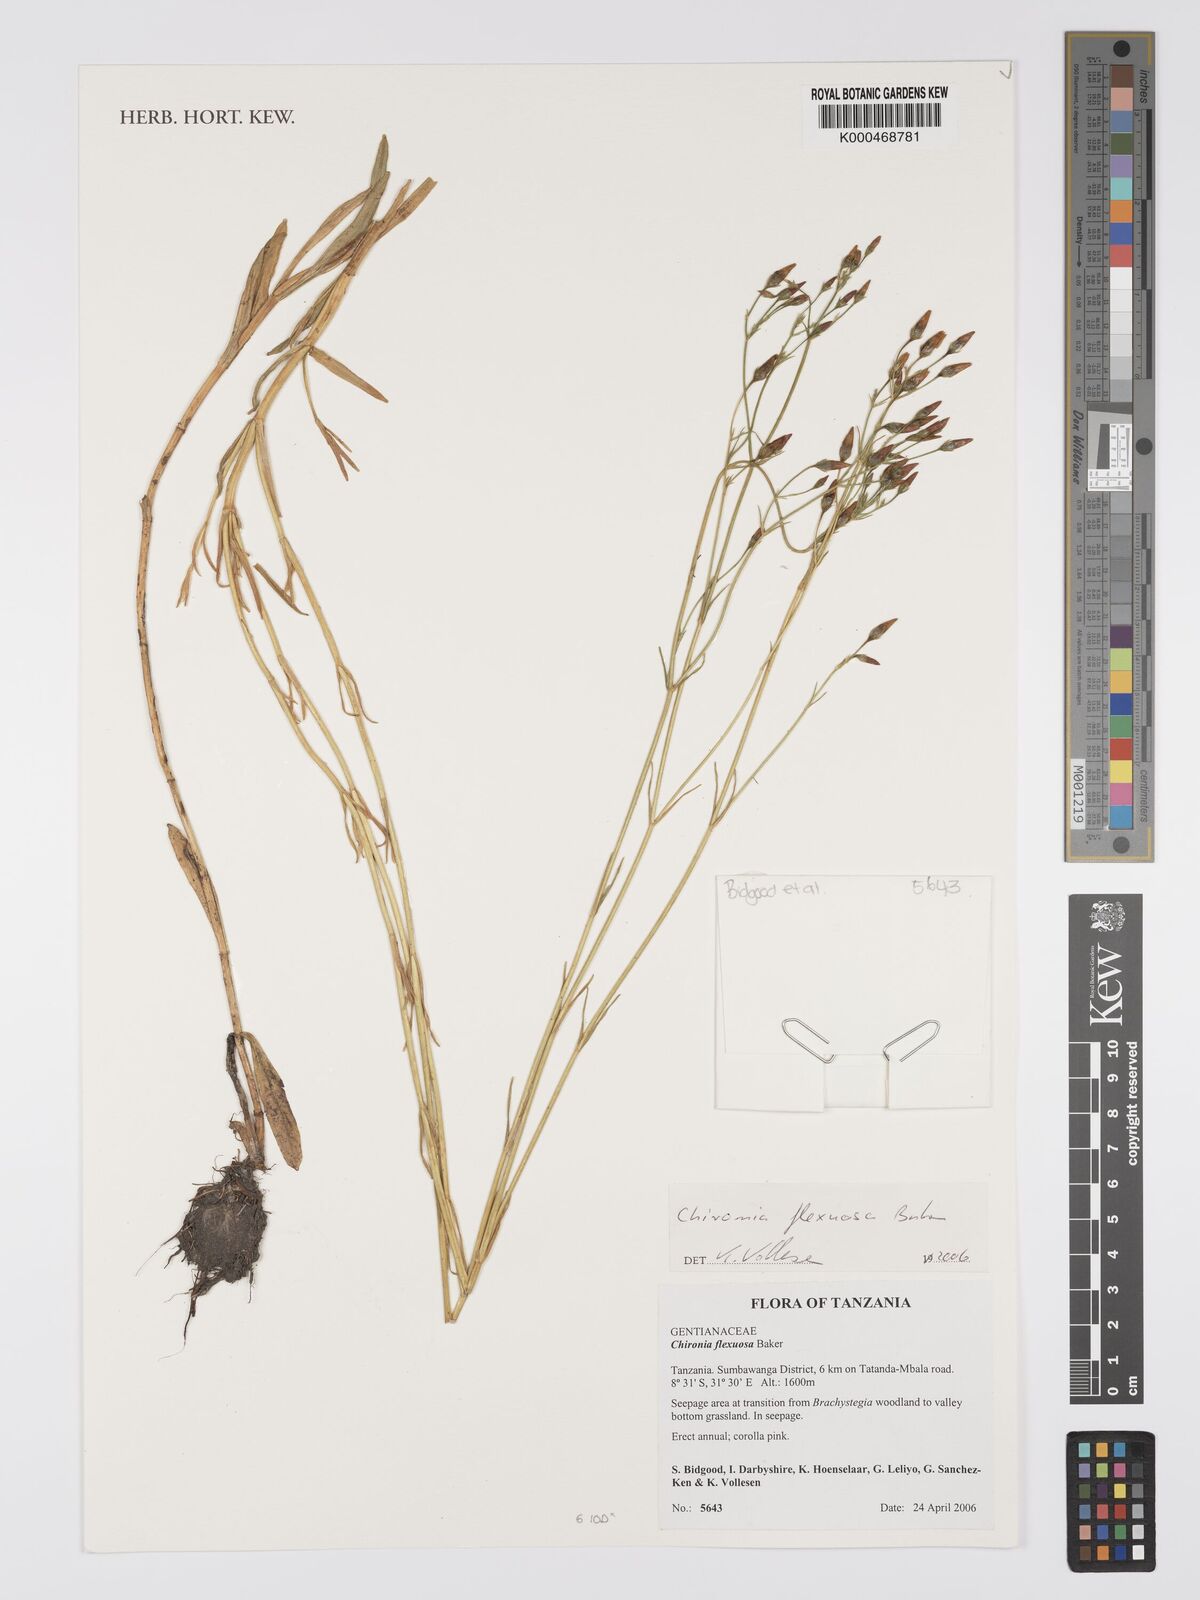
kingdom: Plantae
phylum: Tracheophyta
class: Magnoliopsida
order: Gentianales
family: Gentianaceae
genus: Chironia
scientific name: Chironia flexuosa
